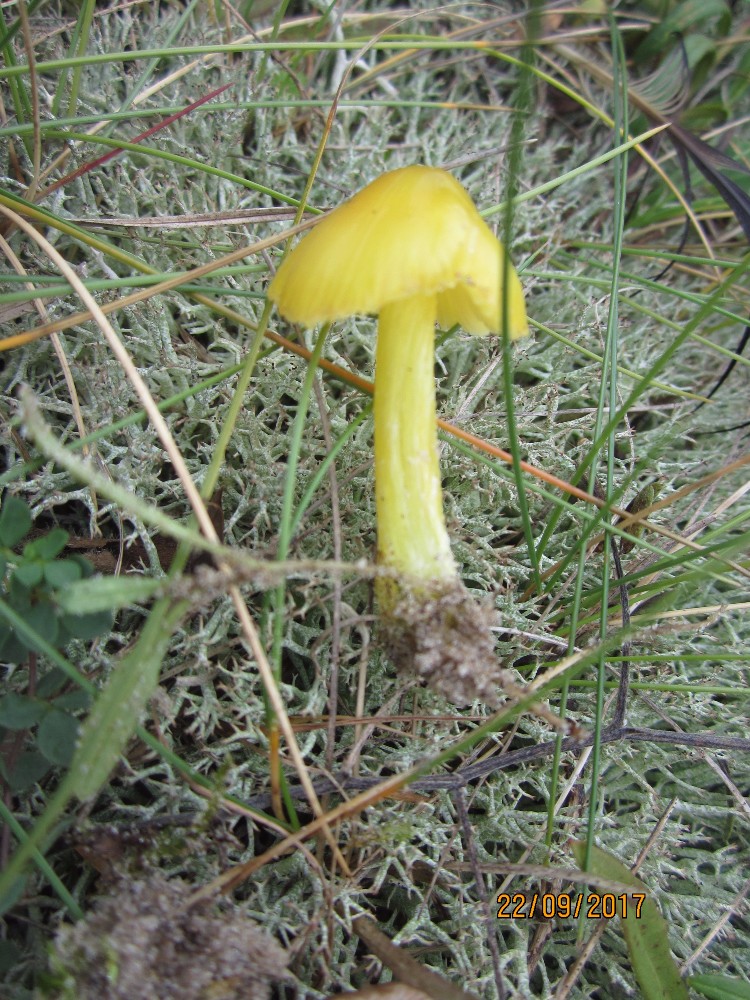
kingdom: Fungi
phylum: Basidiomycota
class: Agaricomycetes
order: Agaricales
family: Hygrophoraceae
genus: Hygrocybe
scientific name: Hygrocybe ceracea
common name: voksgul vokshat
